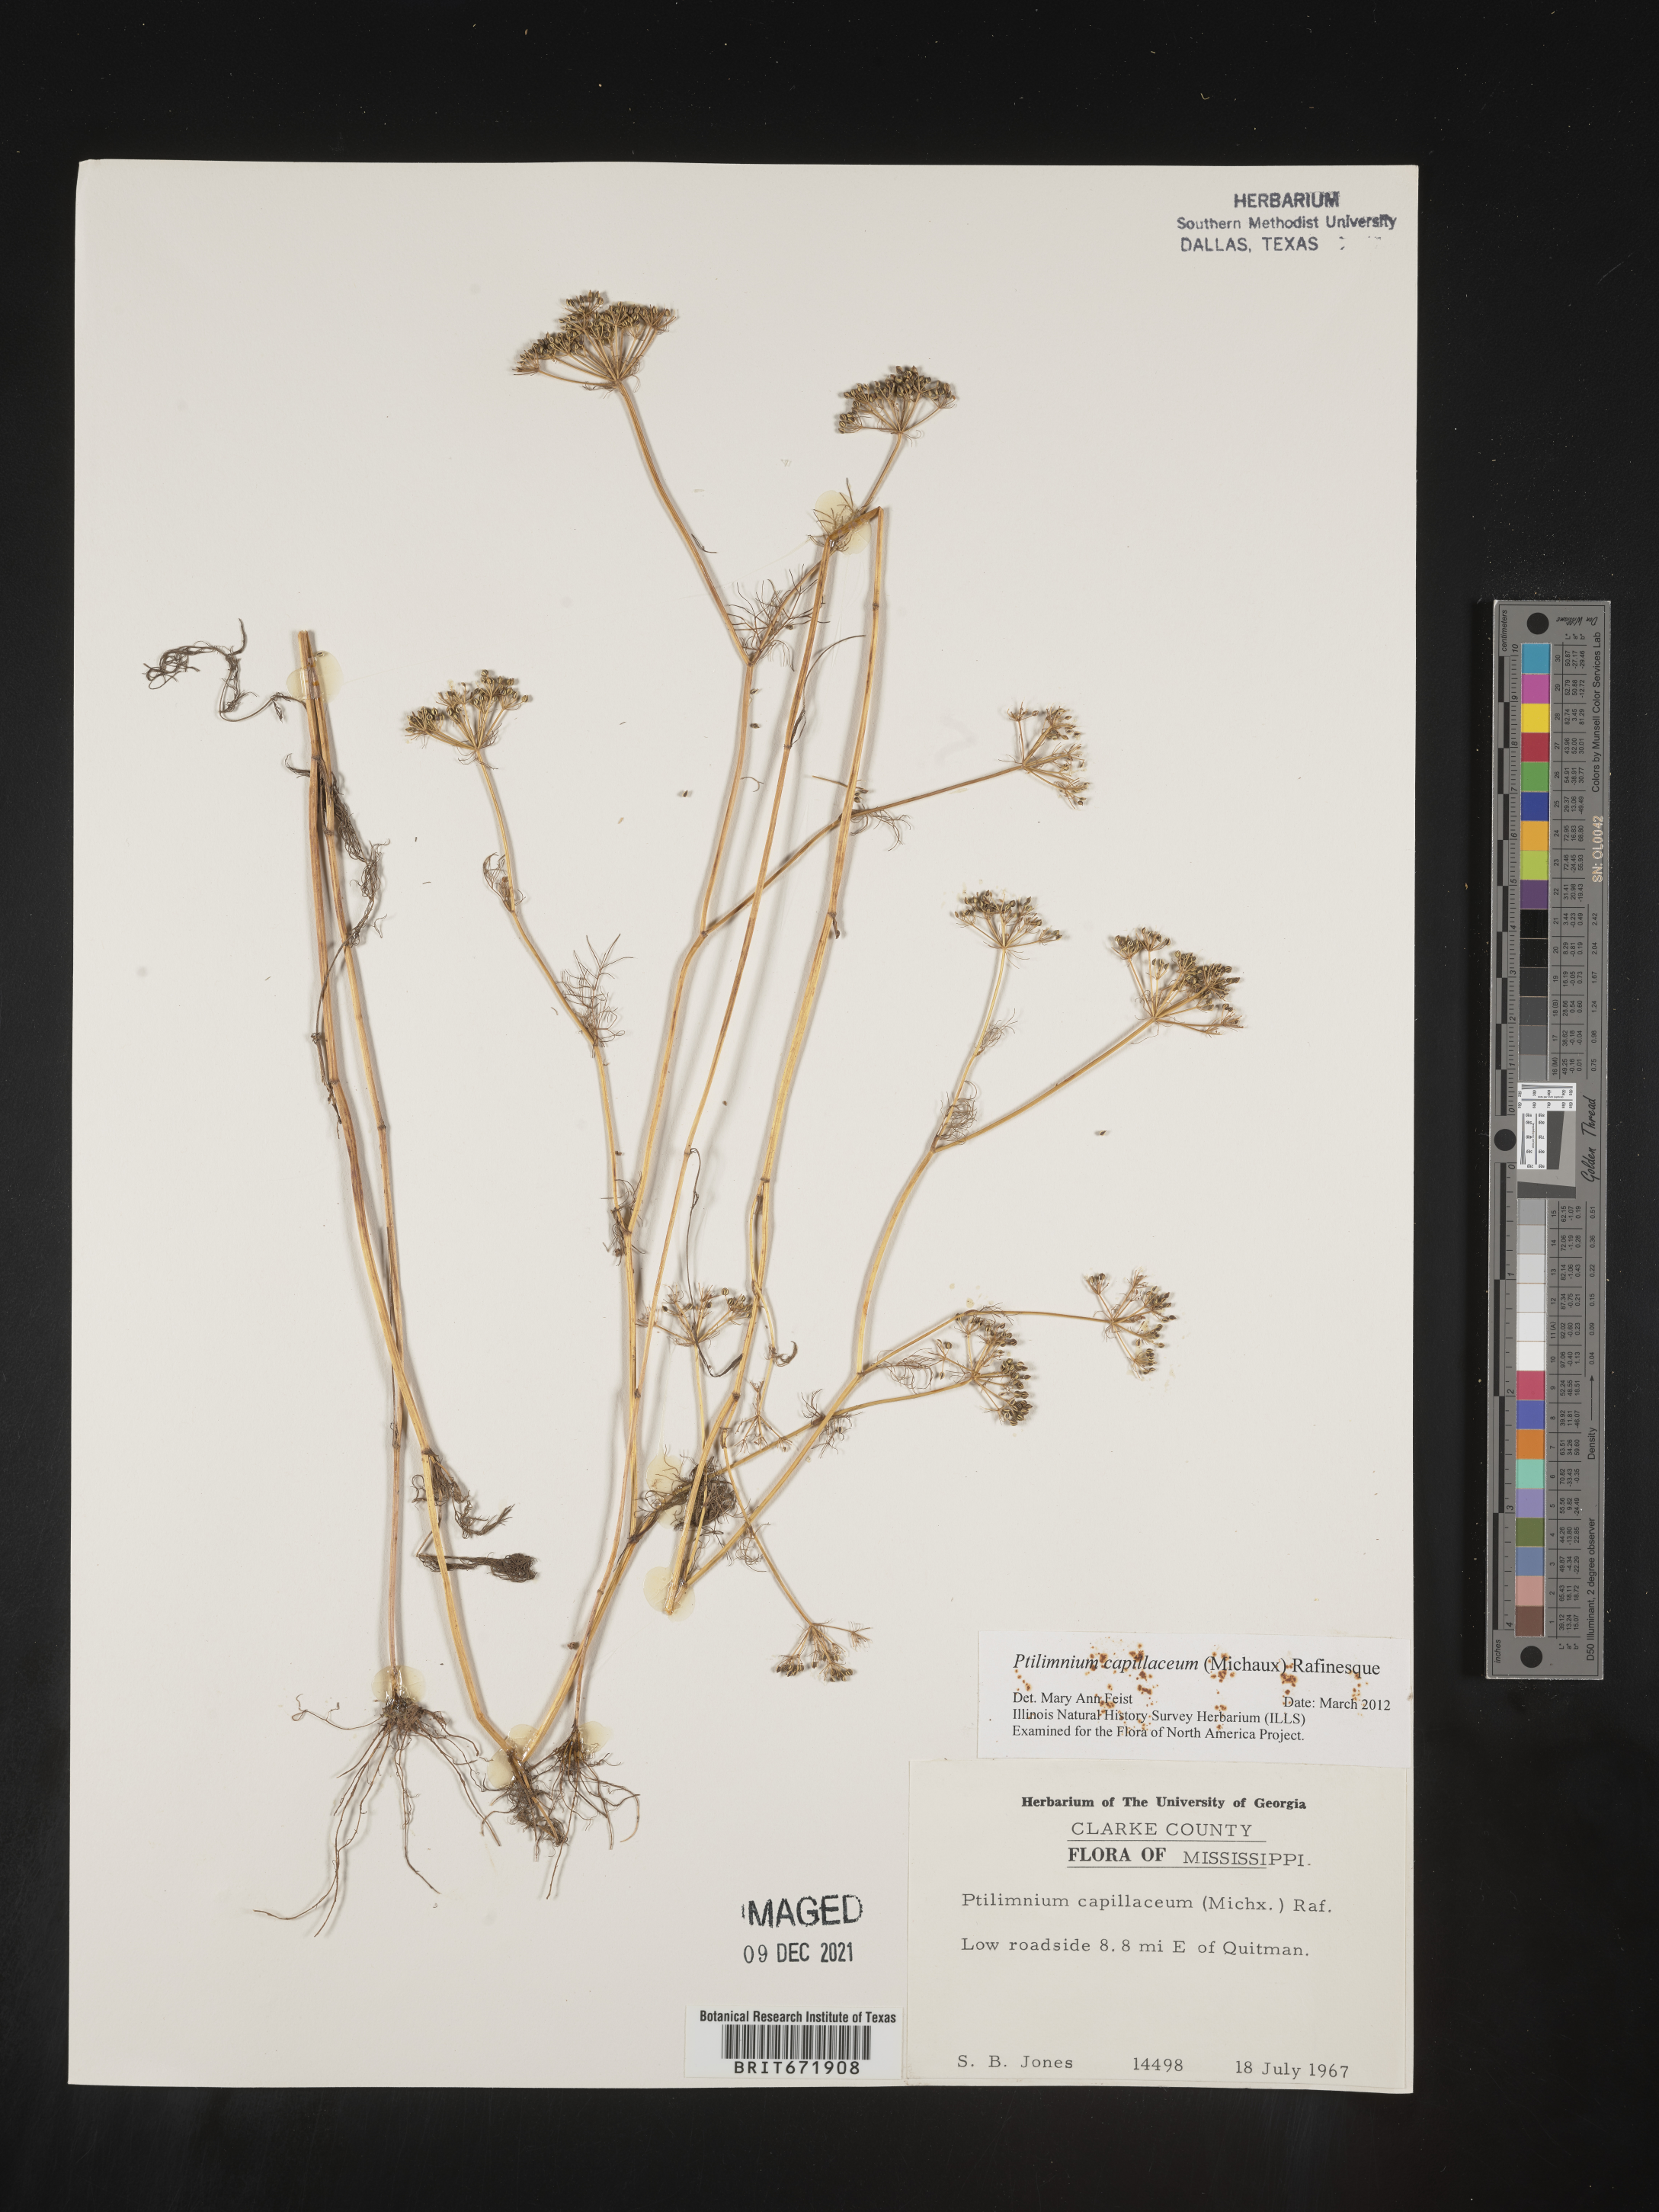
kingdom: Plantae
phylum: Tracheophyta
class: Magnoliopsida
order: Apiales
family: Apiaceae
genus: Ptilimnium
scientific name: Ptilimnium capillaceum
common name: Herbwilliam
